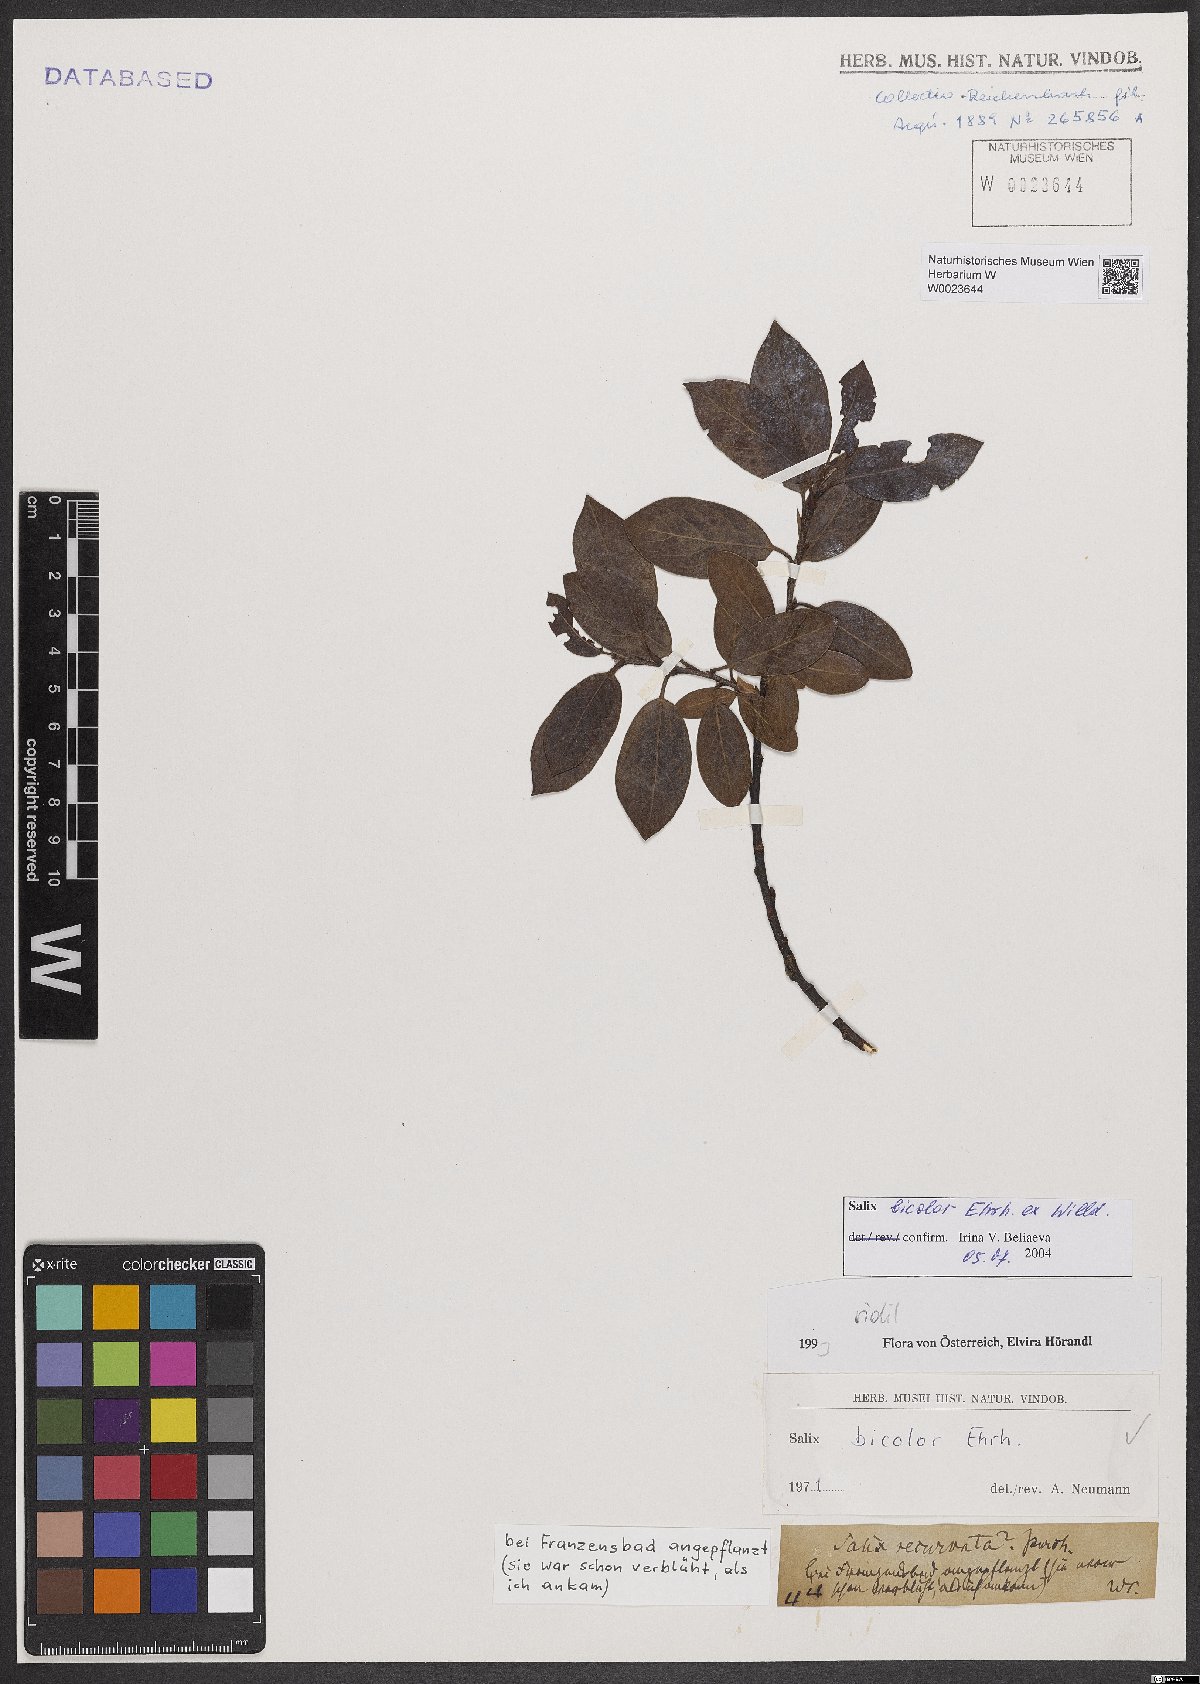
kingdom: Plantae
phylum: Tracheophyta
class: Magnoliopsida
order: Malpighiales
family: Salicaceae
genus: Salix
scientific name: Salix bicolor
